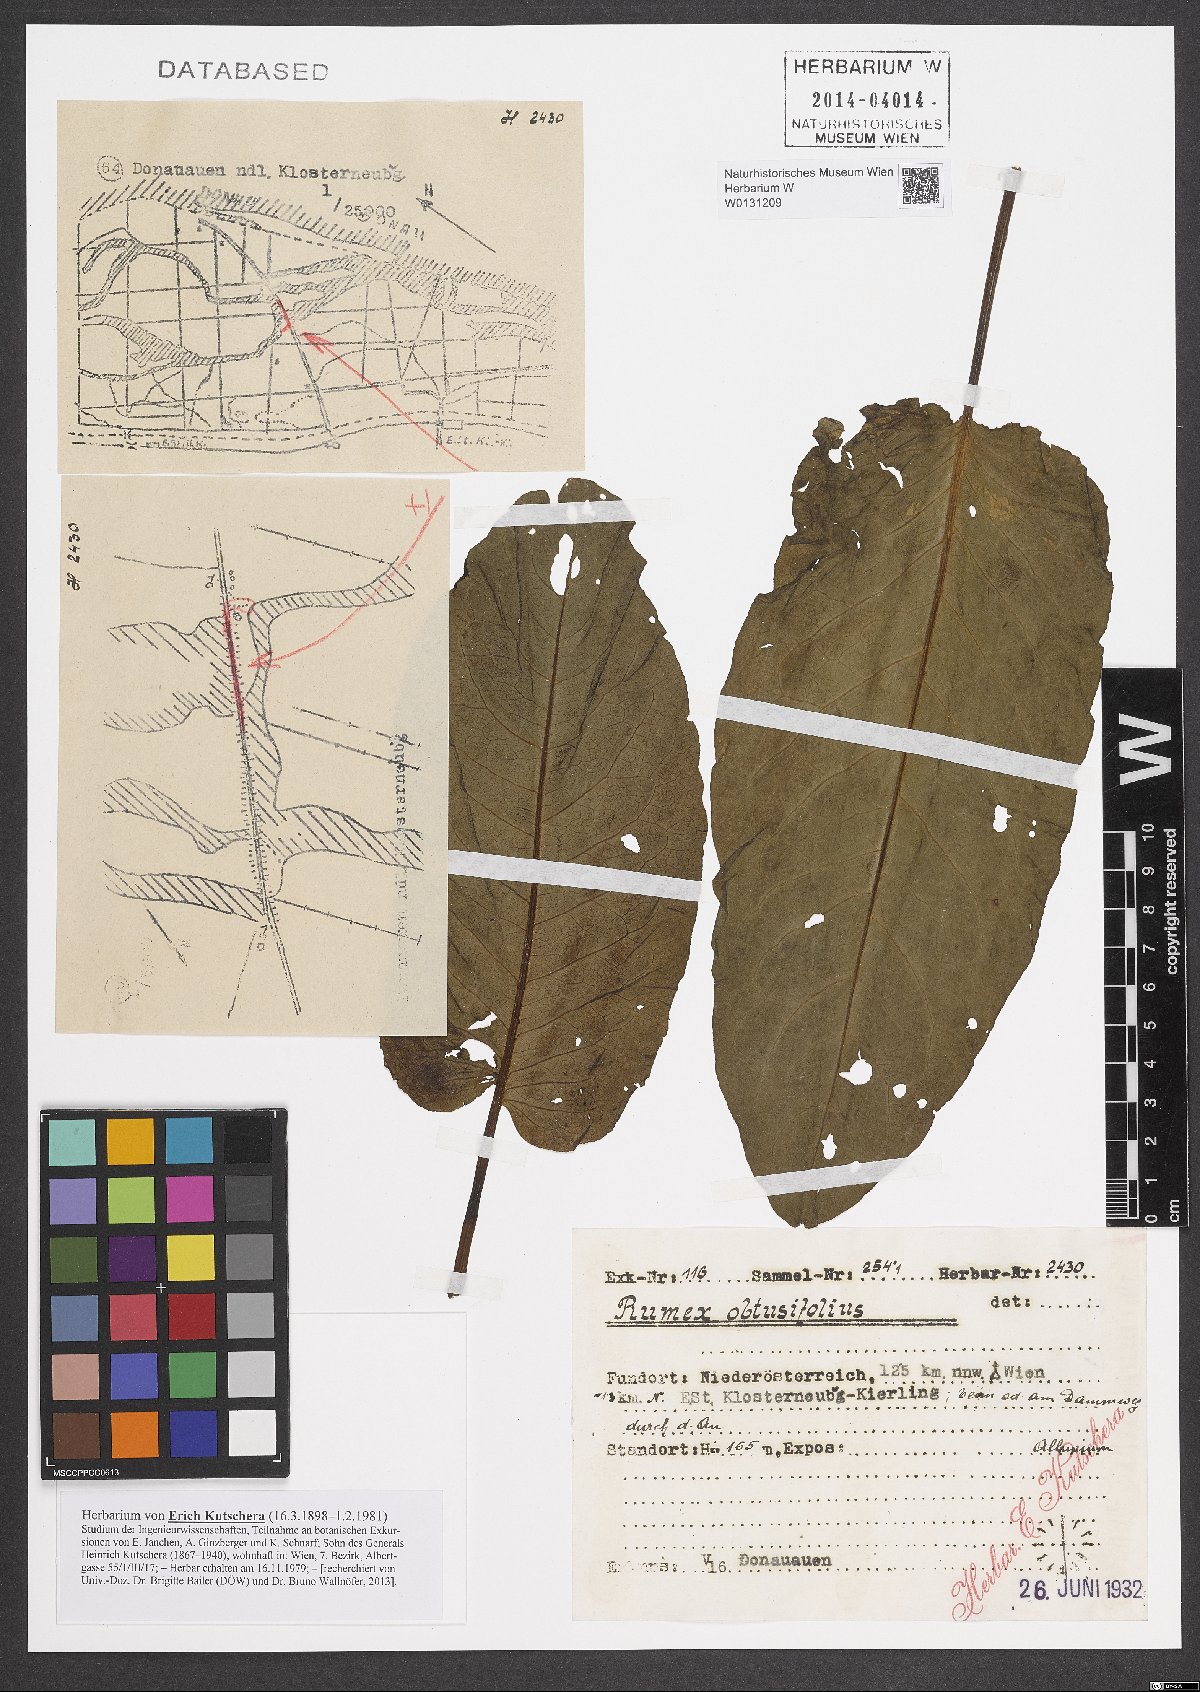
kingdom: Plantae
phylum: Tracheophyta
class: Magnoliopsida
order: Caryophyllales
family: Polygonaceae
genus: Rumex
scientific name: Rumex obtusifolius
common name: Bitter dock
